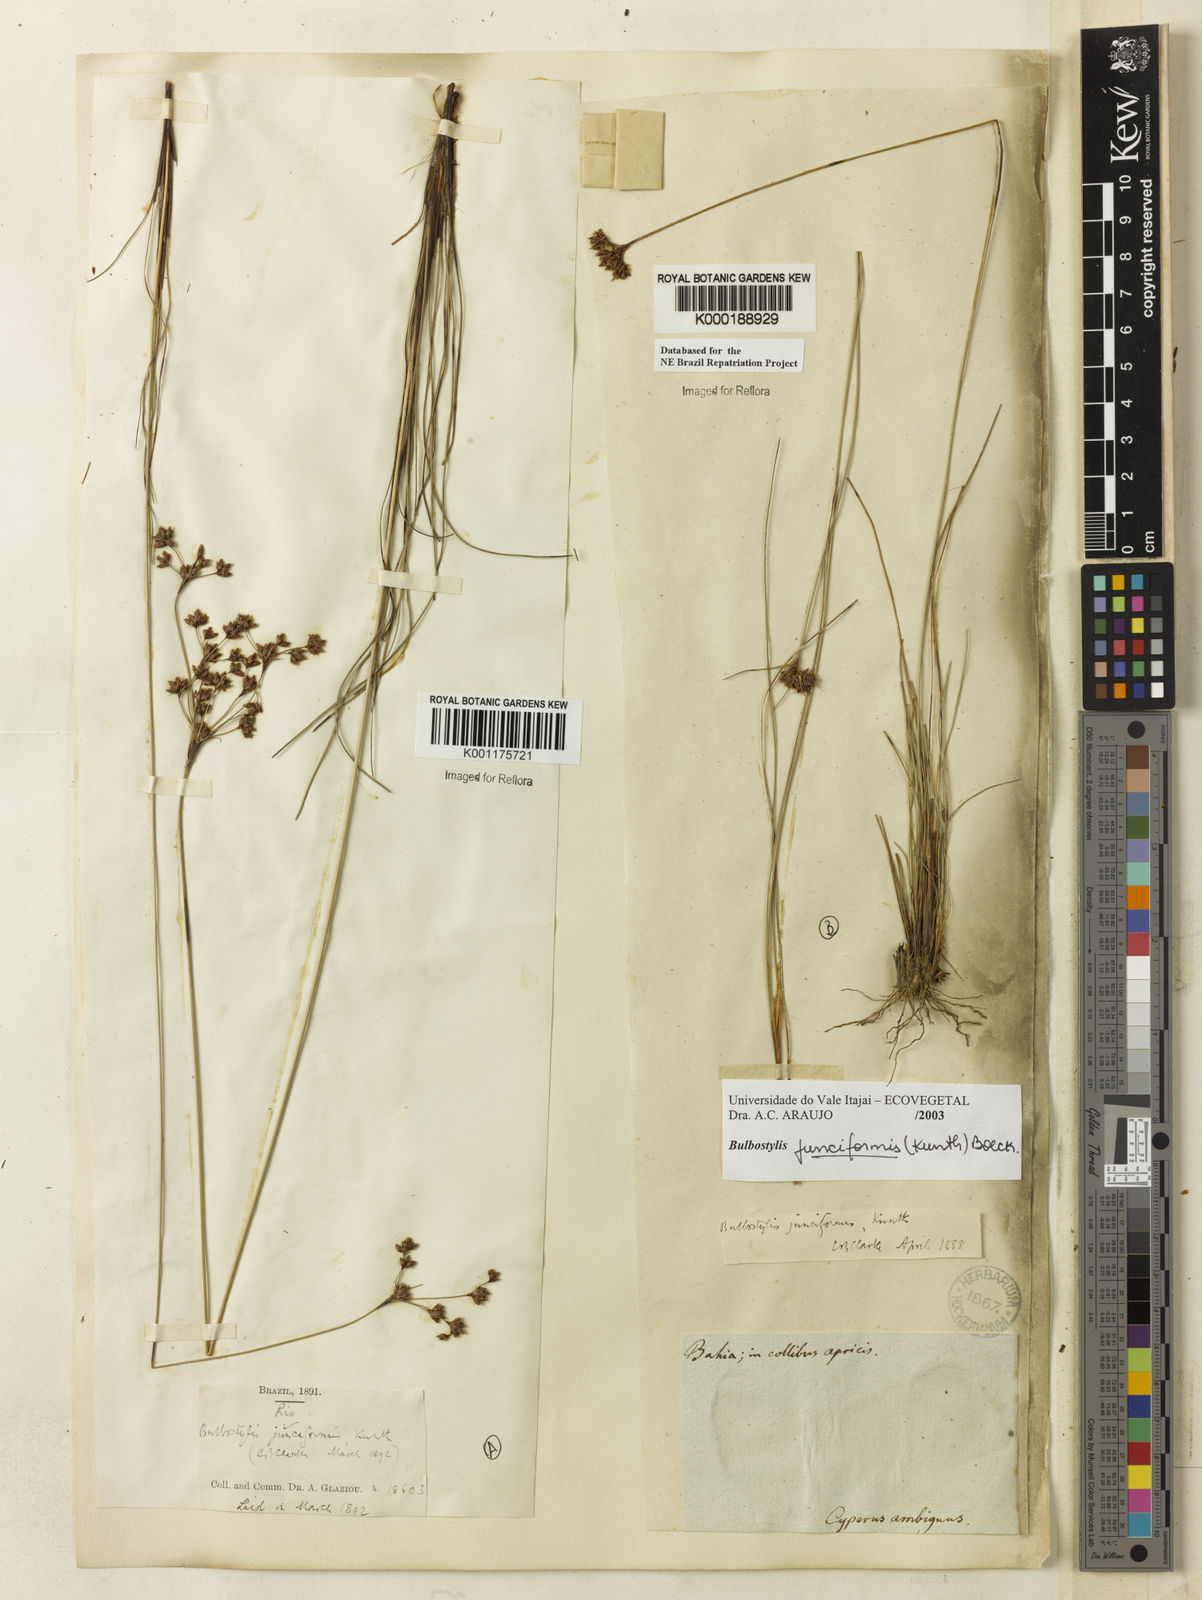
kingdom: Plantae
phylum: Tracheophyta
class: Liliopsida
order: Poales
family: Cyperaceae
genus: Bulbostylis
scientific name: Bulbostylis junciformis
